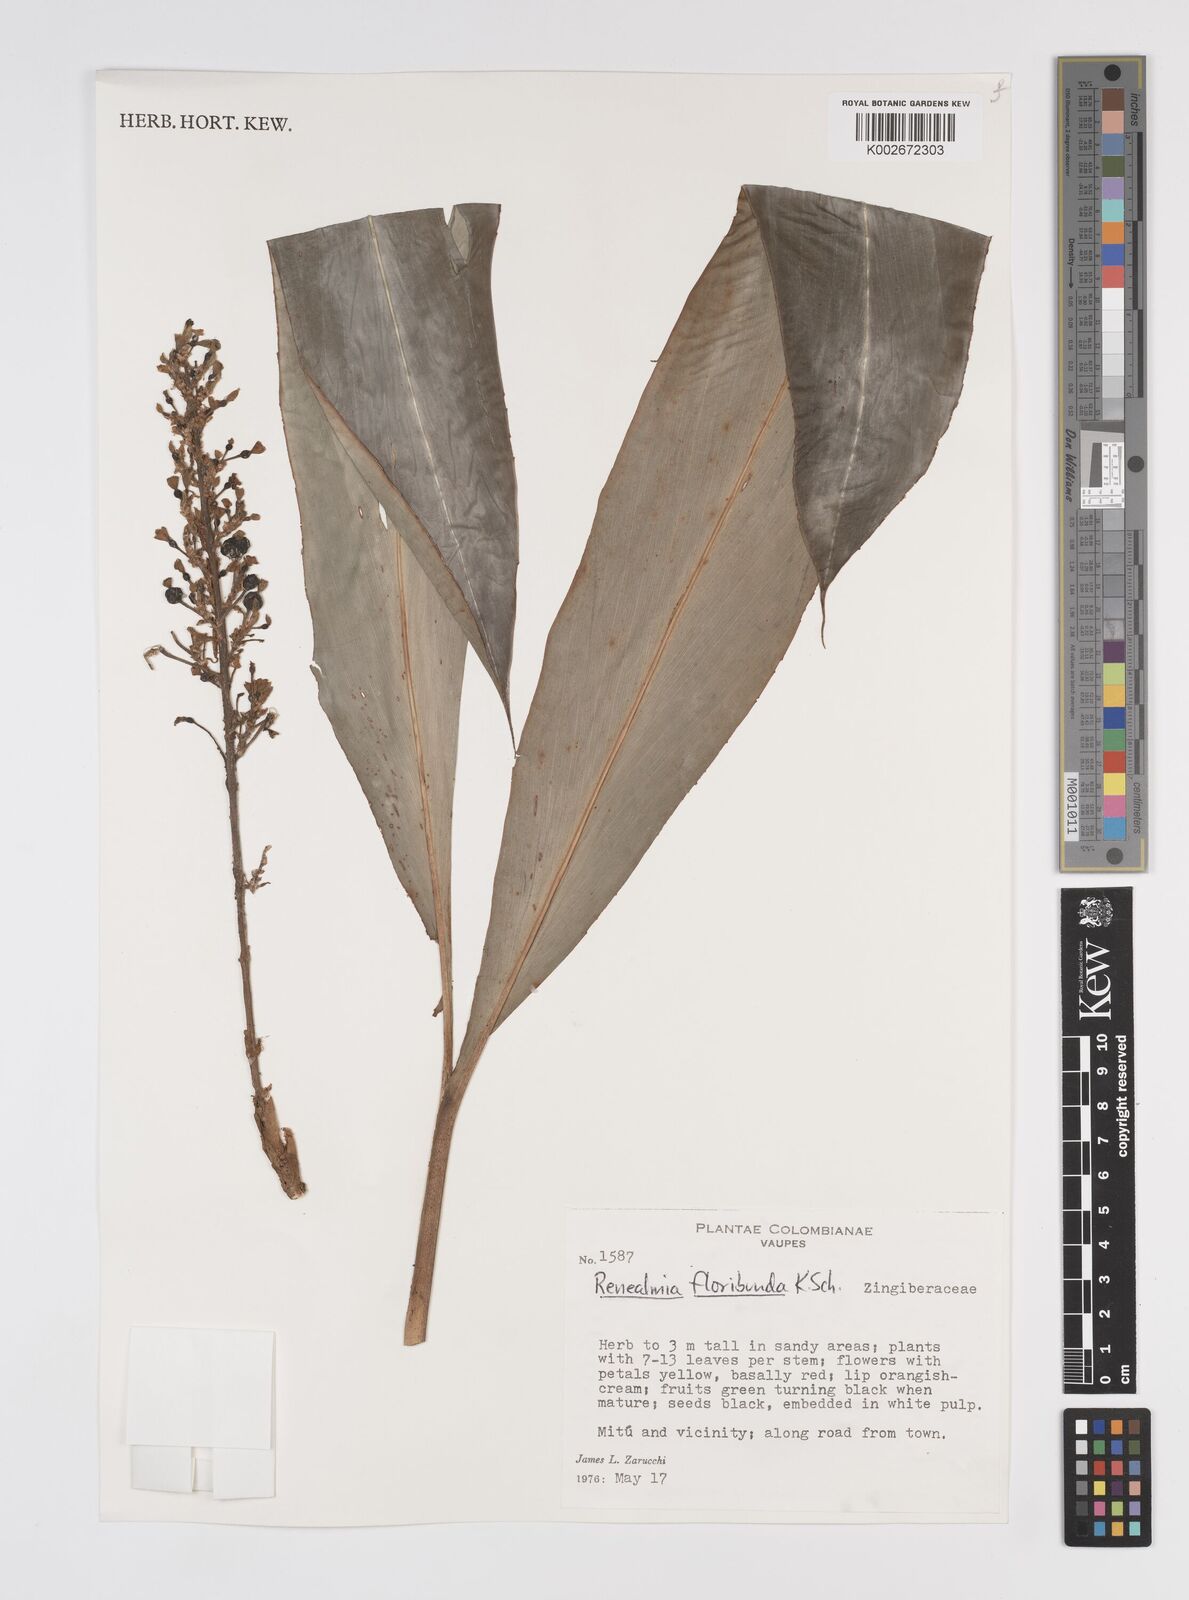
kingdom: Plantae
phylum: Tracheophyta
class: Liliopsida
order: Zingiberales
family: Zingiberaceae
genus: Renealmia
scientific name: Renealmia floribunda
